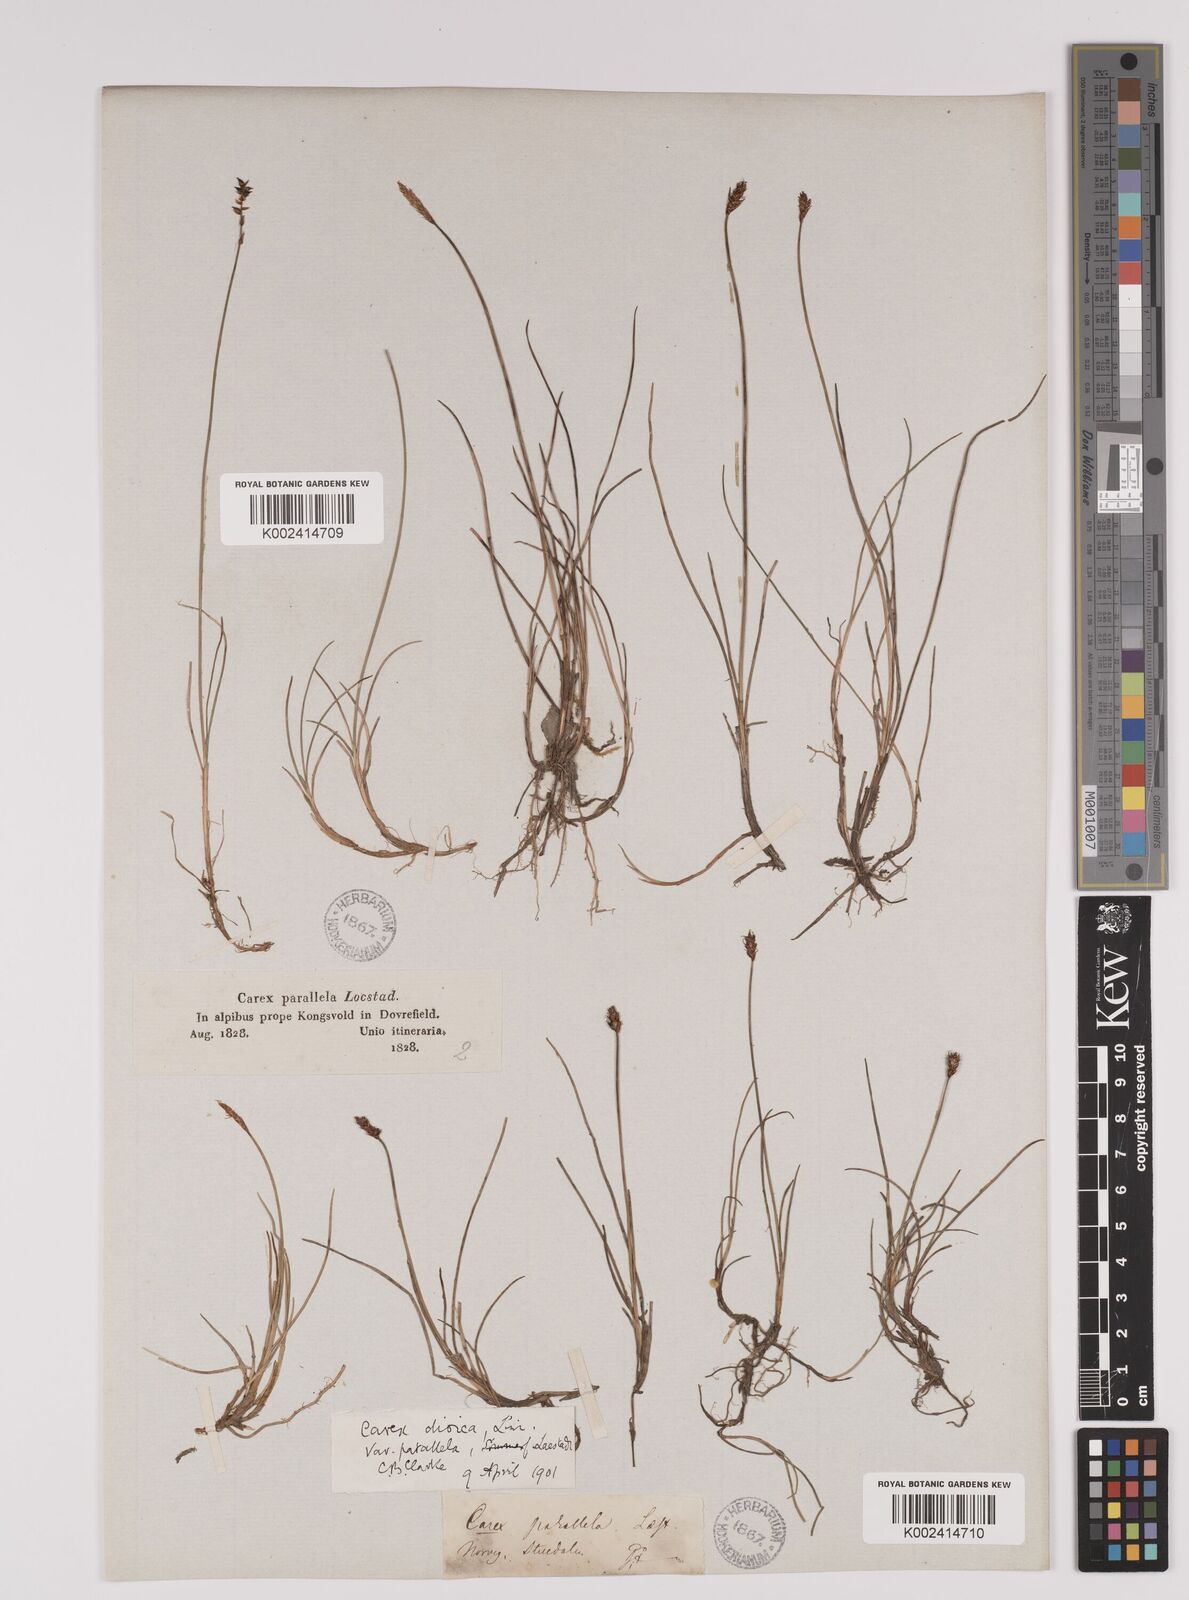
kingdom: Plantae
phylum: Tracheophyta
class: Liliopsida
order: Poales
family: Cyperaceae
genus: Carex
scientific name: Carex parallela
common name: Parallel sedge
